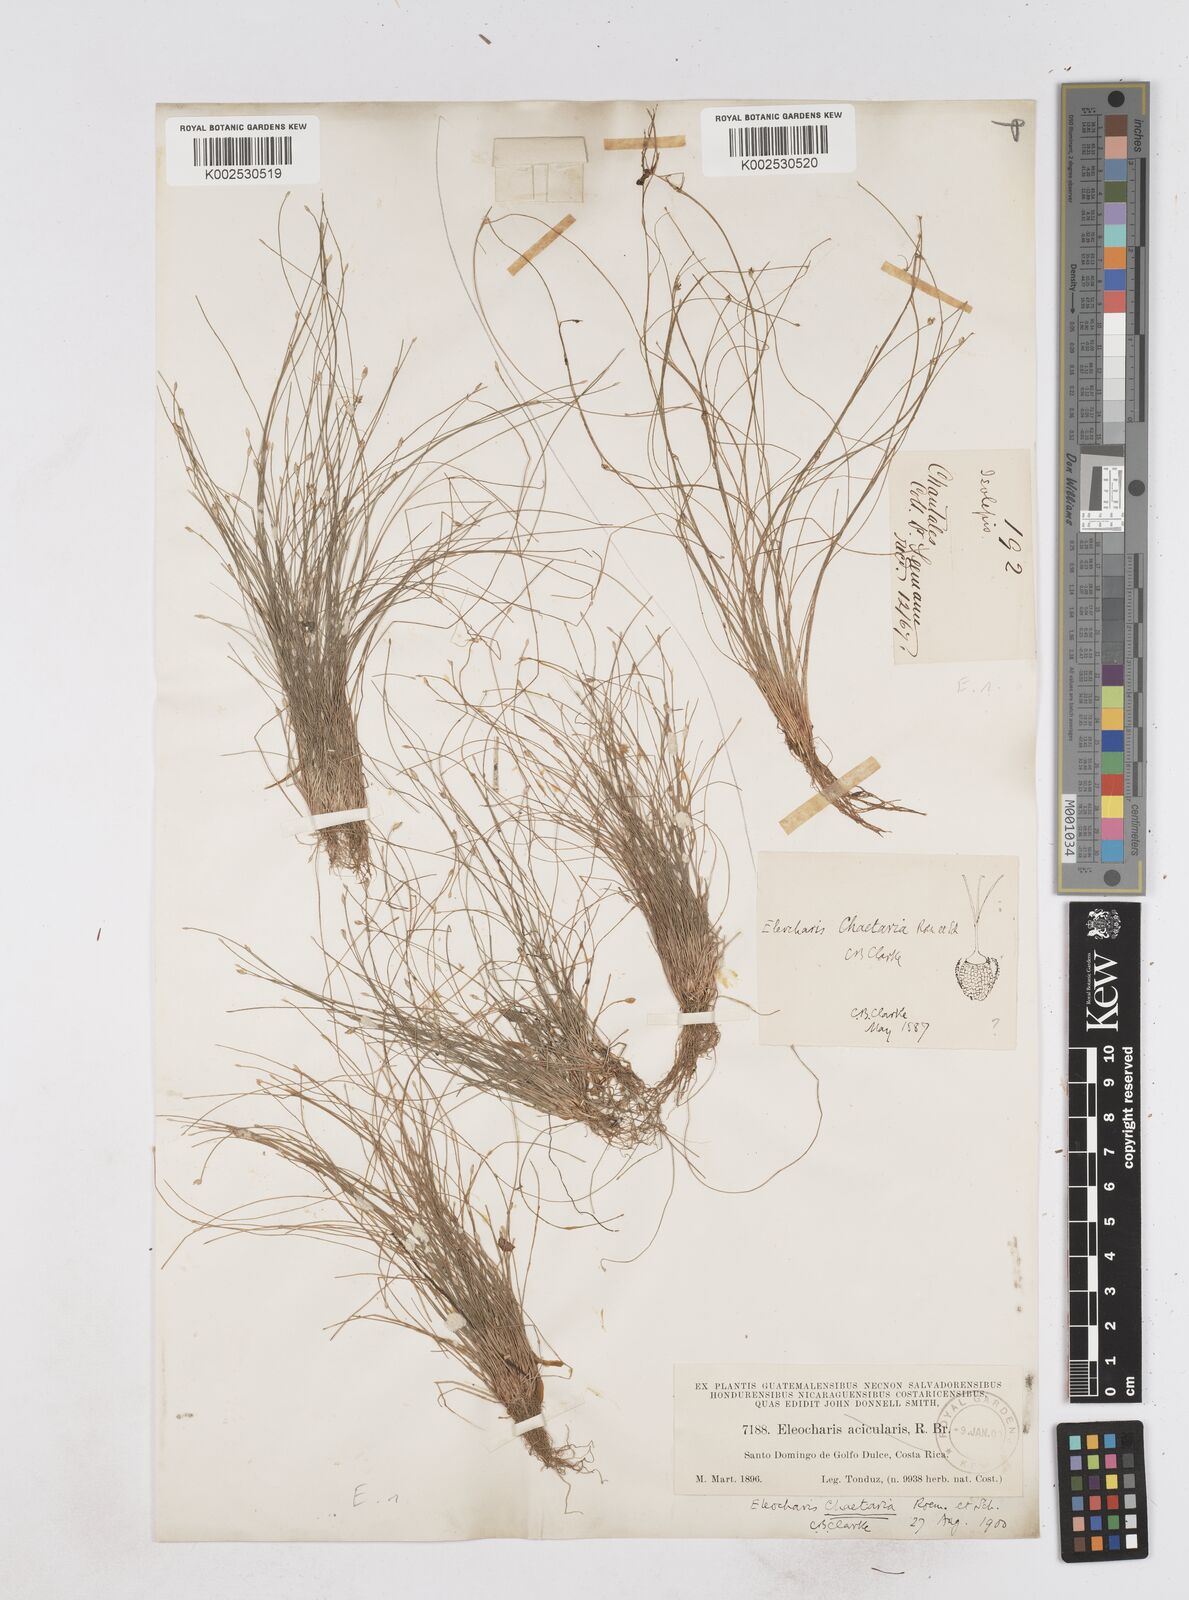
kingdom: Plantae
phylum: Tracheophyta
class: Liliopsida
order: Poales
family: Cyperaceae
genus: Eleocharis
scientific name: Eleocharis retroflexa
